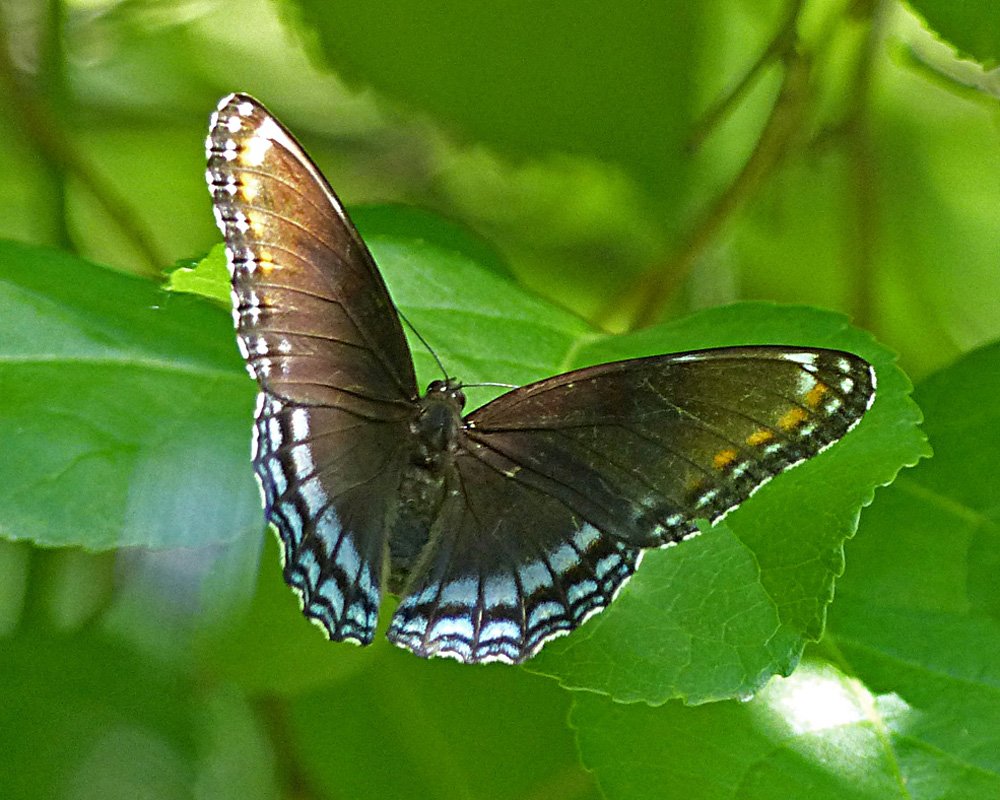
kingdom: Animalia
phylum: Arthropoda
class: Insecta
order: Lepidoptera
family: Nymphalidae
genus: Limenitis
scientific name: Limenitis astyanax
